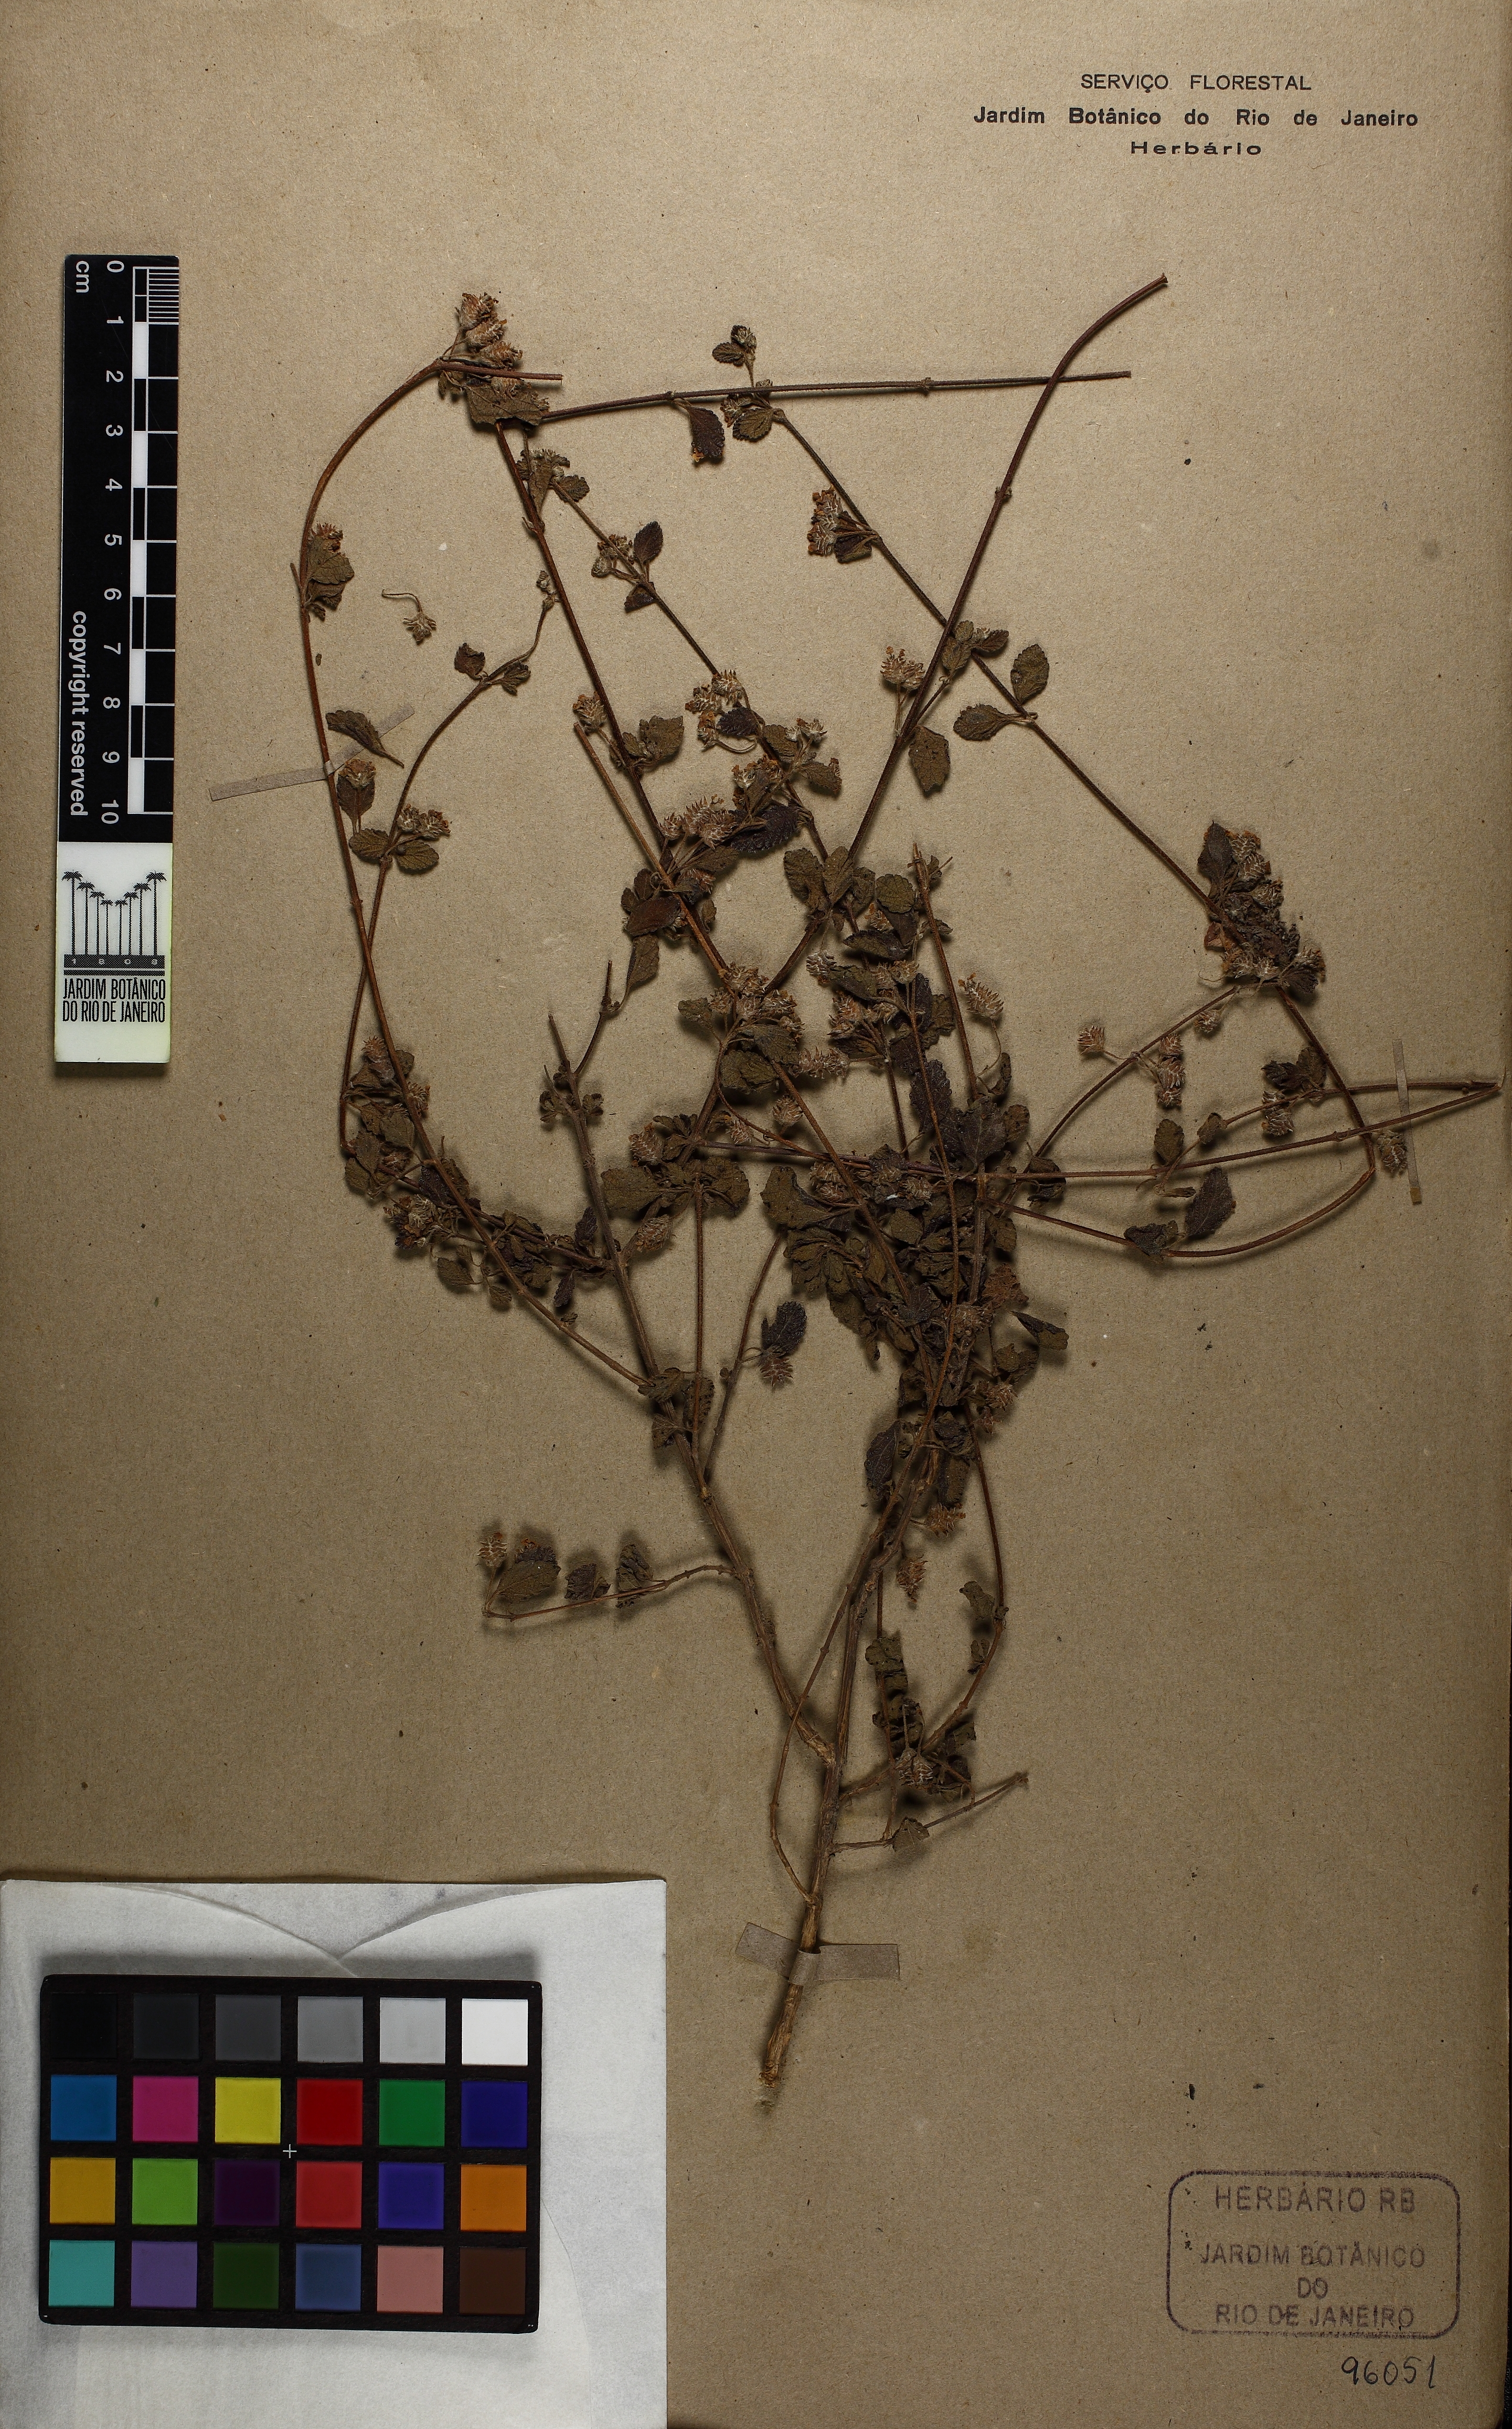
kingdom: Plantae
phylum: Tracheophyta
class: Magnoliopsida
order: Lamiales
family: Verbenaceae
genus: Lippia
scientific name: Lippia origanoides
